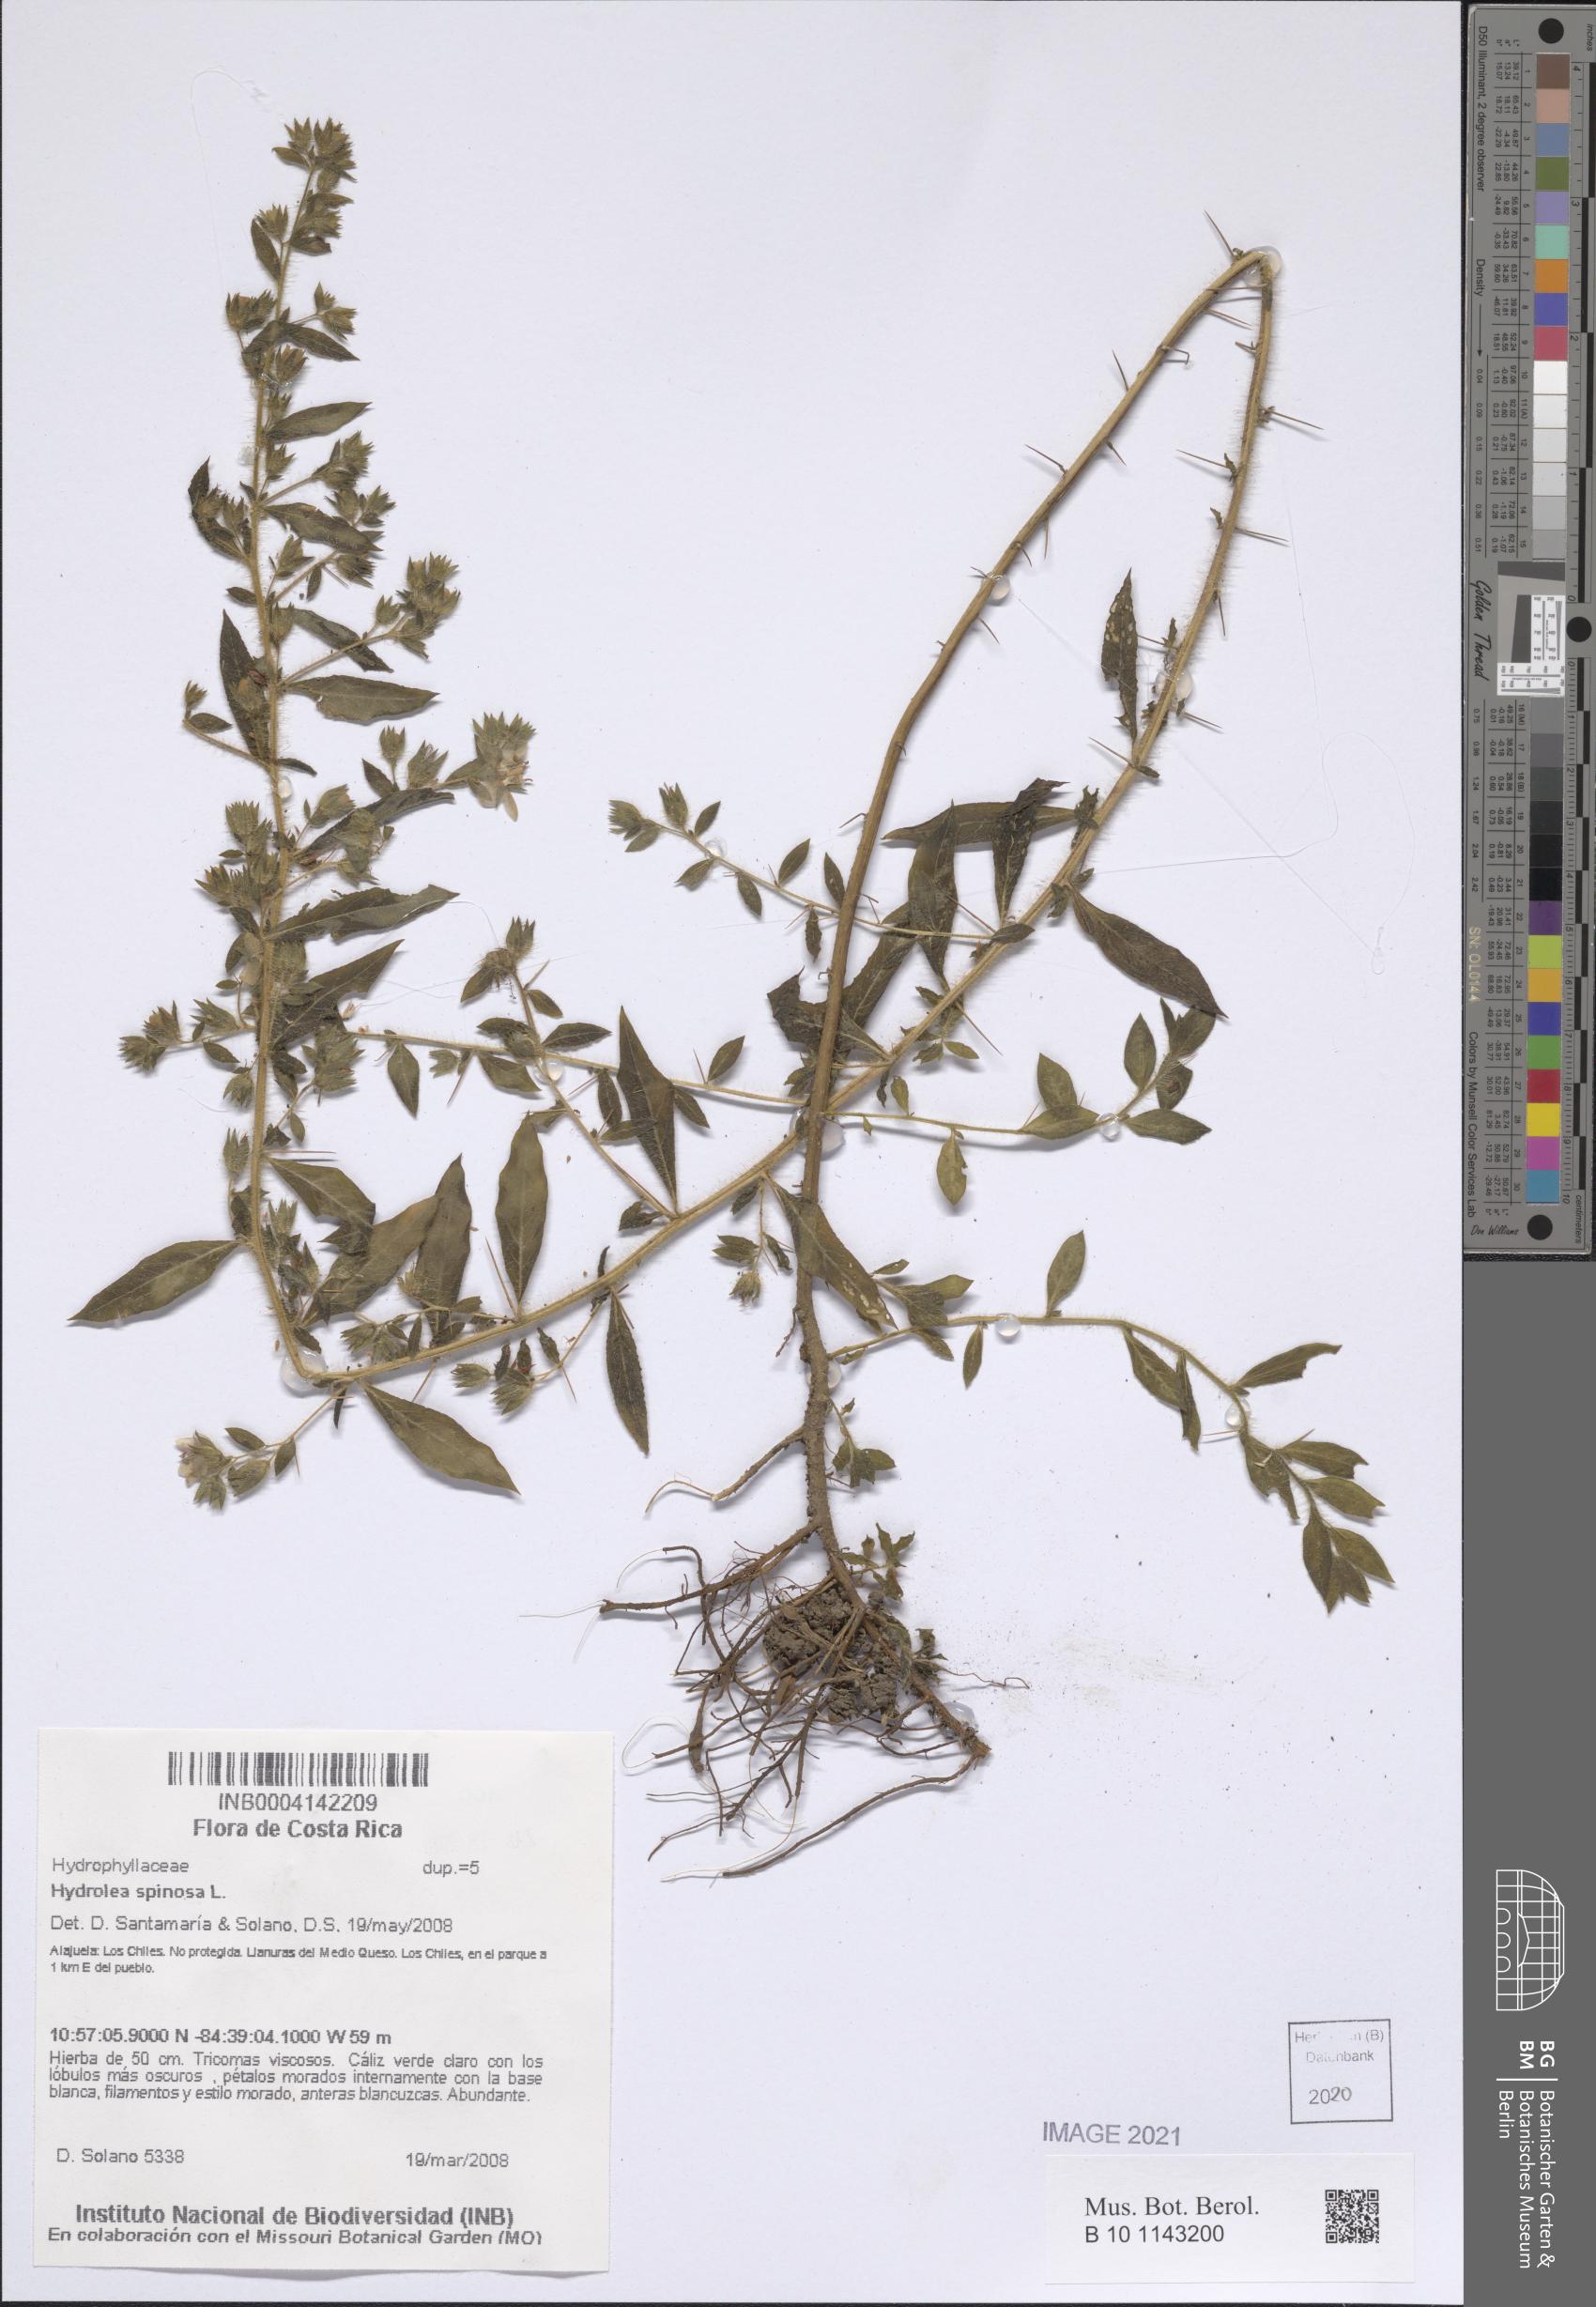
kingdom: Plantae
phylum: Tracheophyta
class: Magnoliopsida
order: Solanales
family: Hydroleaceae
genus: Hydrolea
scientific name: Hydrolea spinosa
